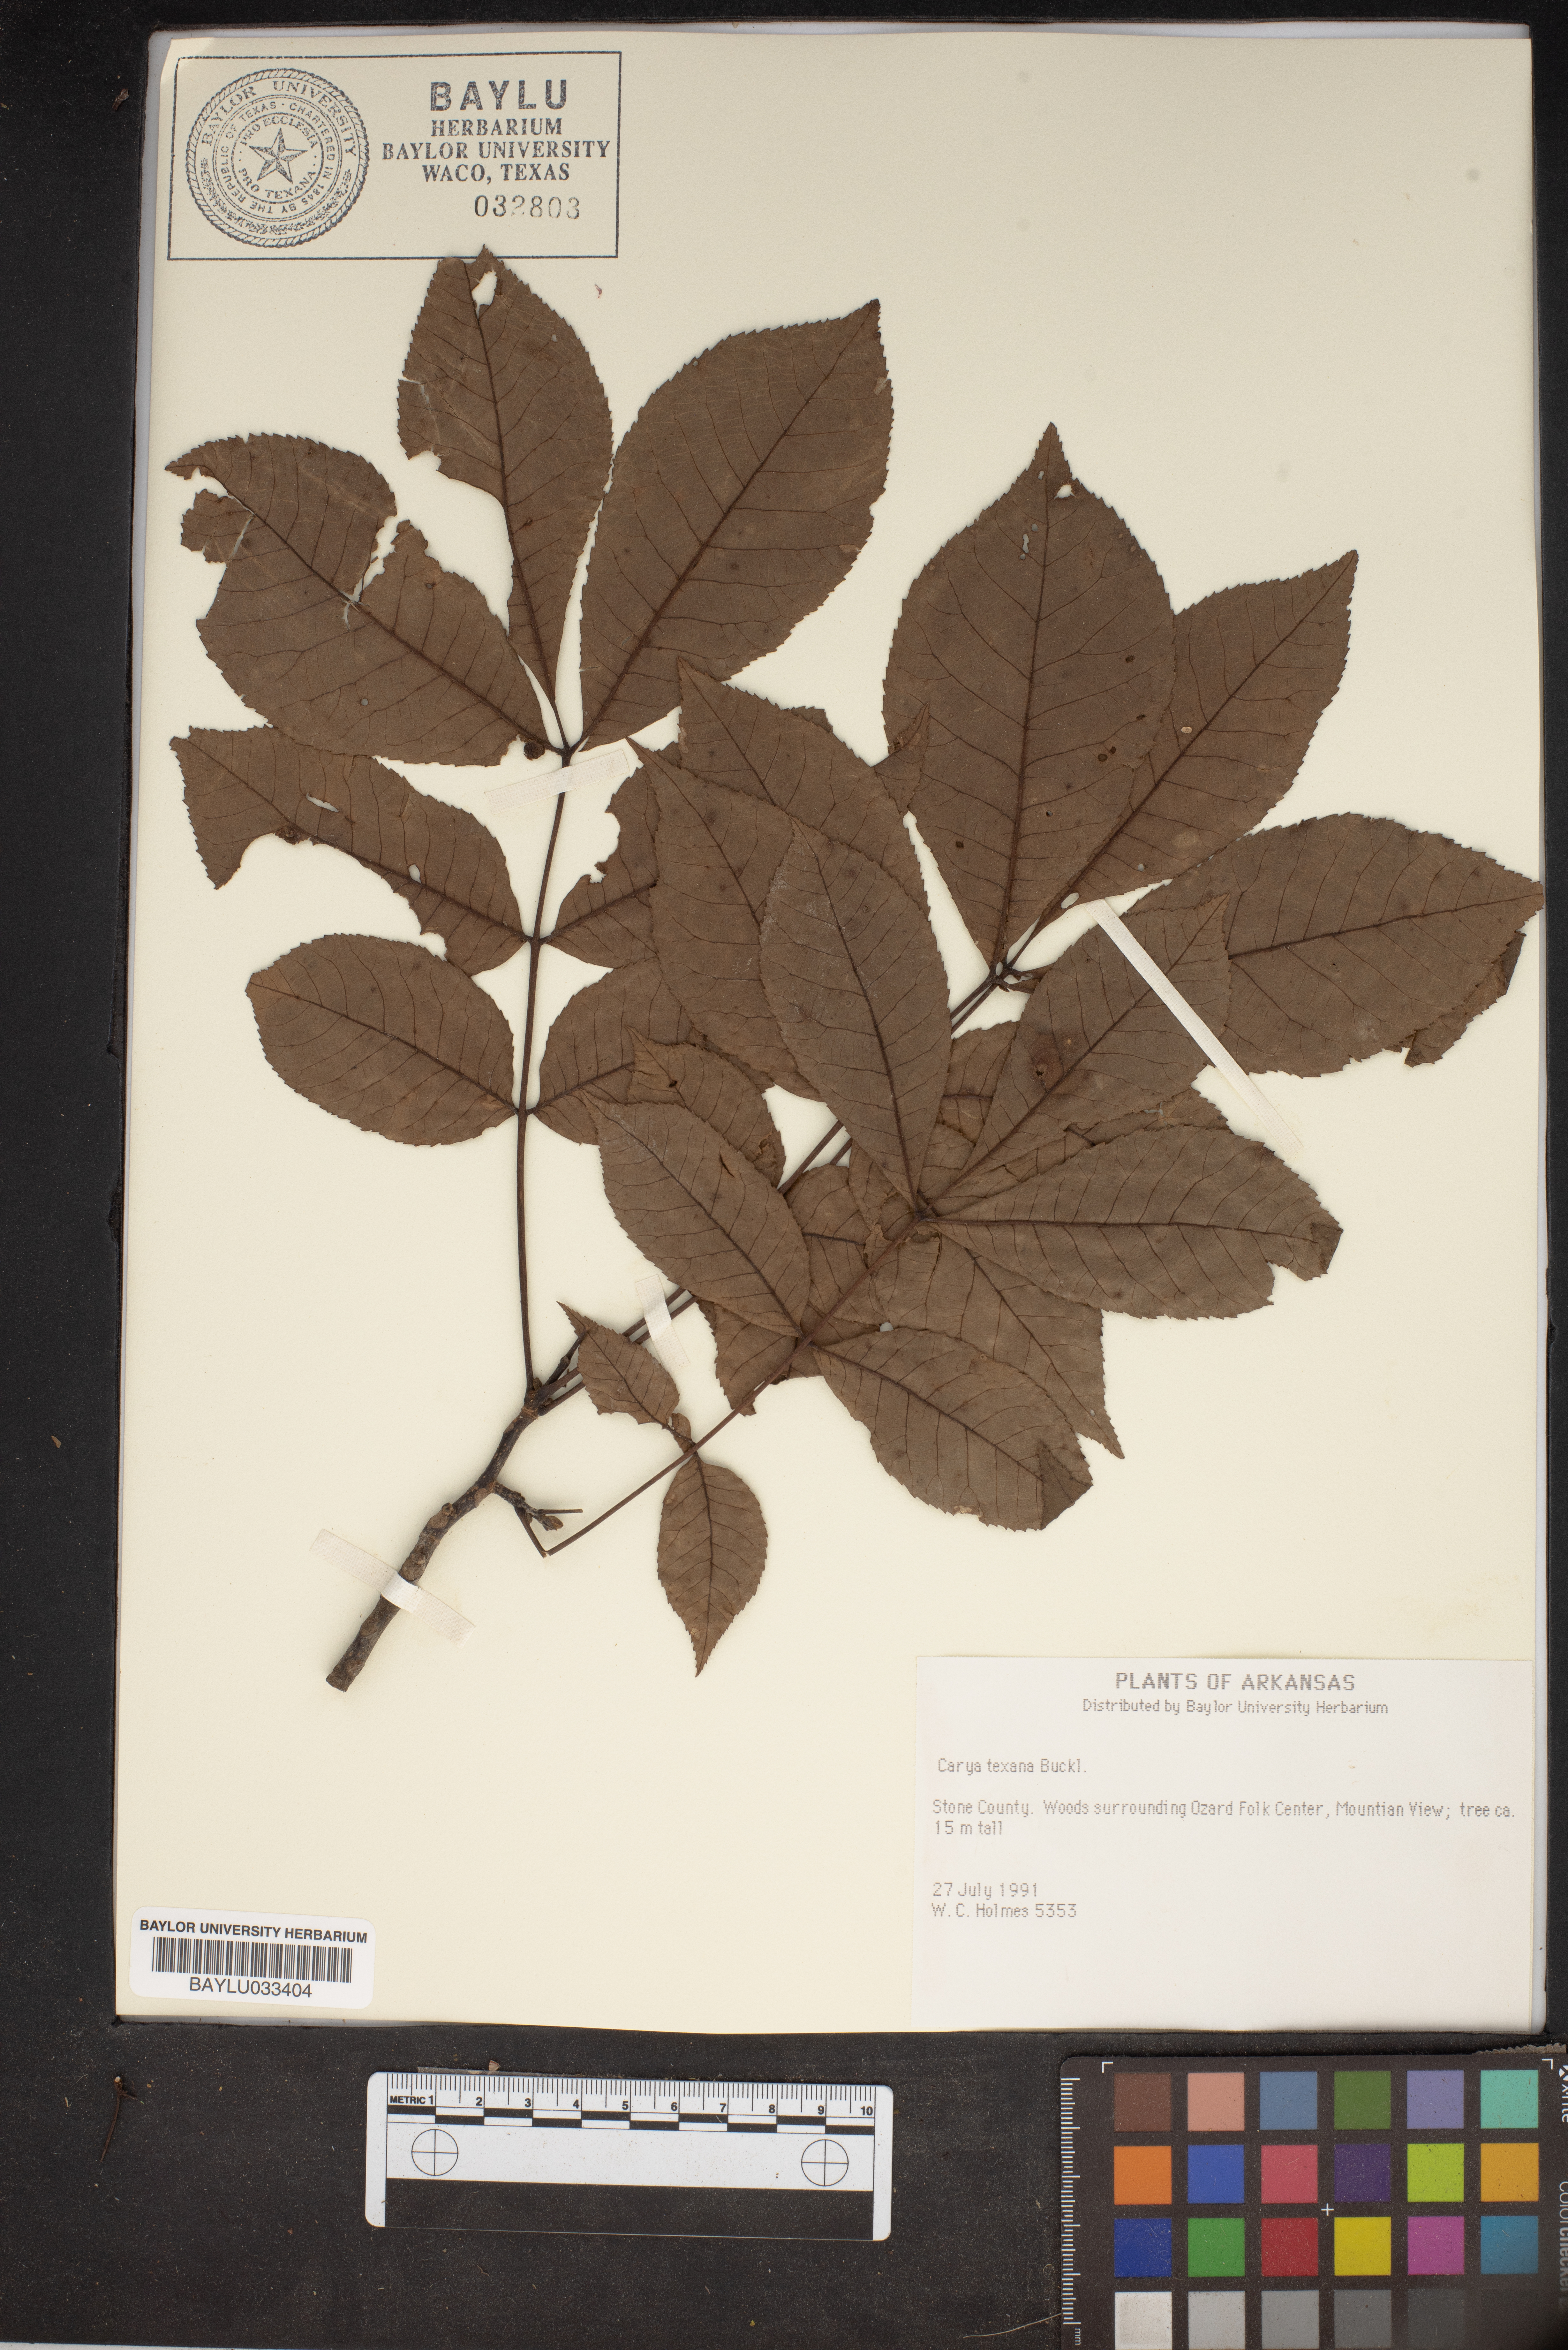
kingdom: Plantae
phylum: Tracheophyta
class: Magnoliopsida
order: Fagales
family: Juglandaceae
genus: Carya
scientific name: Carya texana
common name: Black hickory
